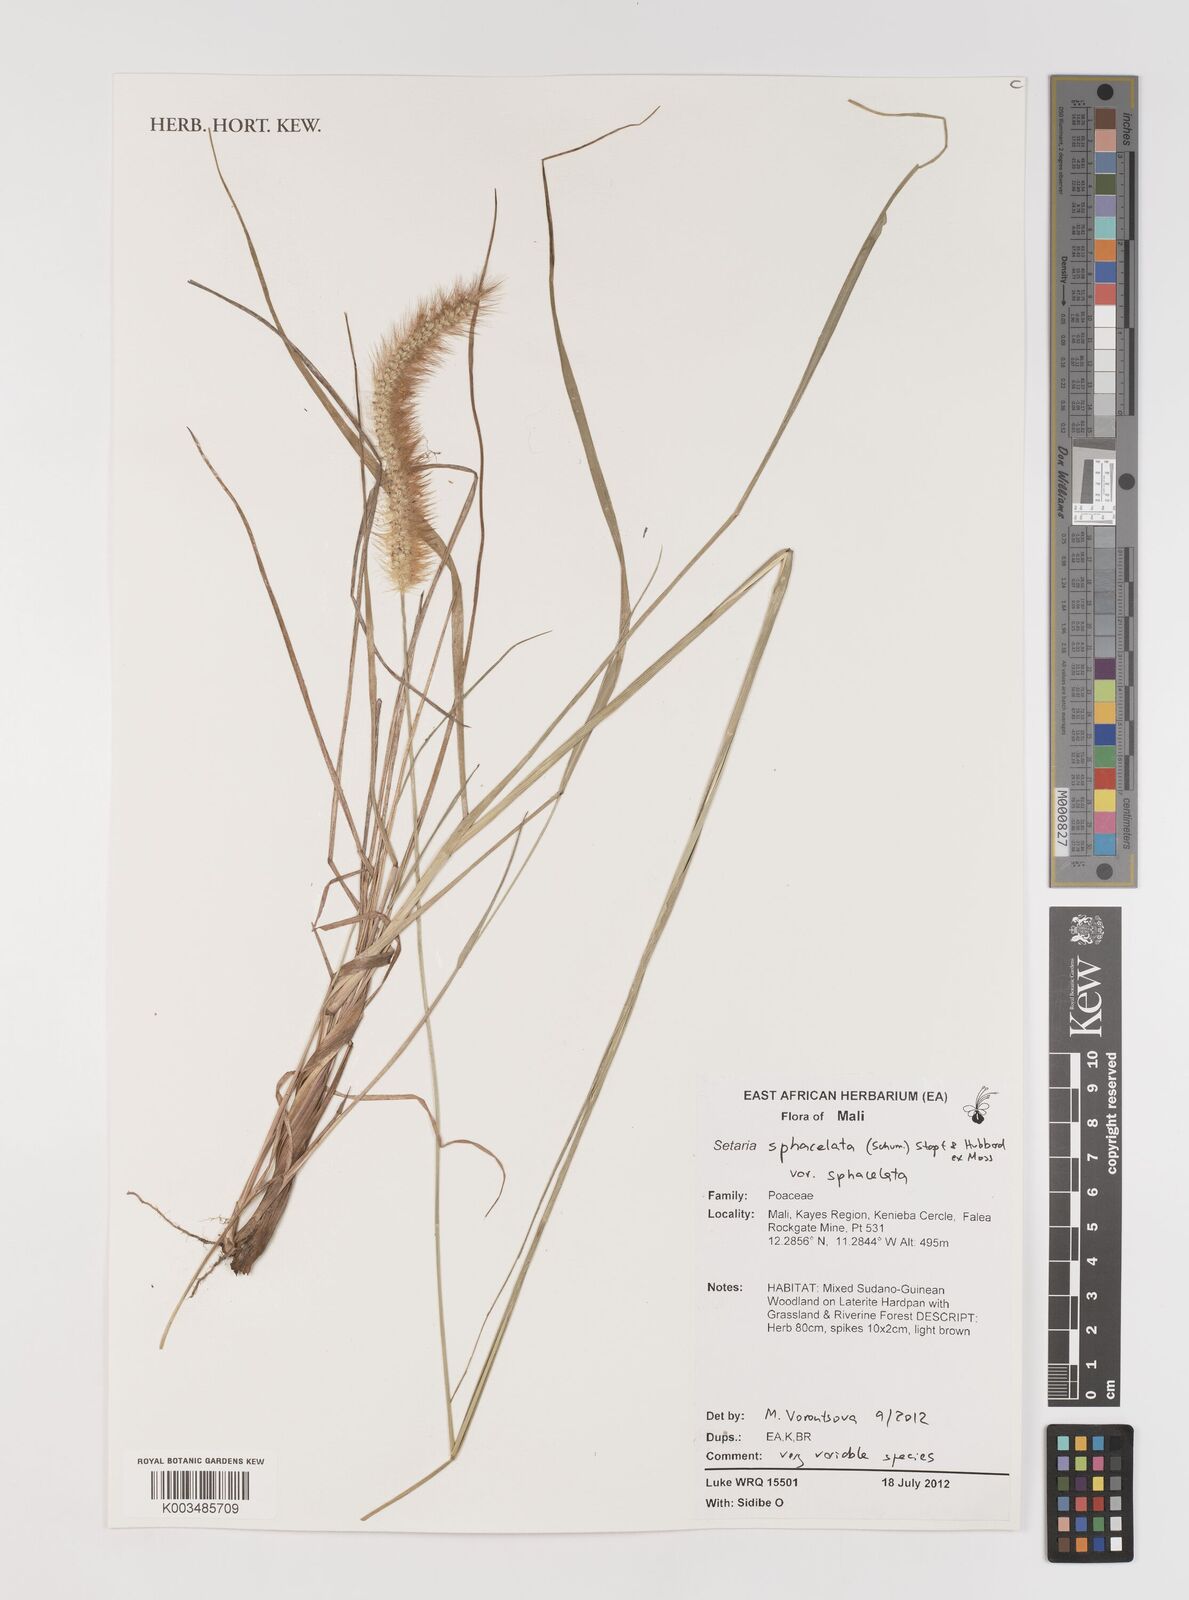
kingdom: Plantae
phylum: Tracheophyta
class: Liliopsida
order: Poales
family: Poaceae
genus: Setaria
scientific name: Setaria sphacelata
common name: African bristlegrass
